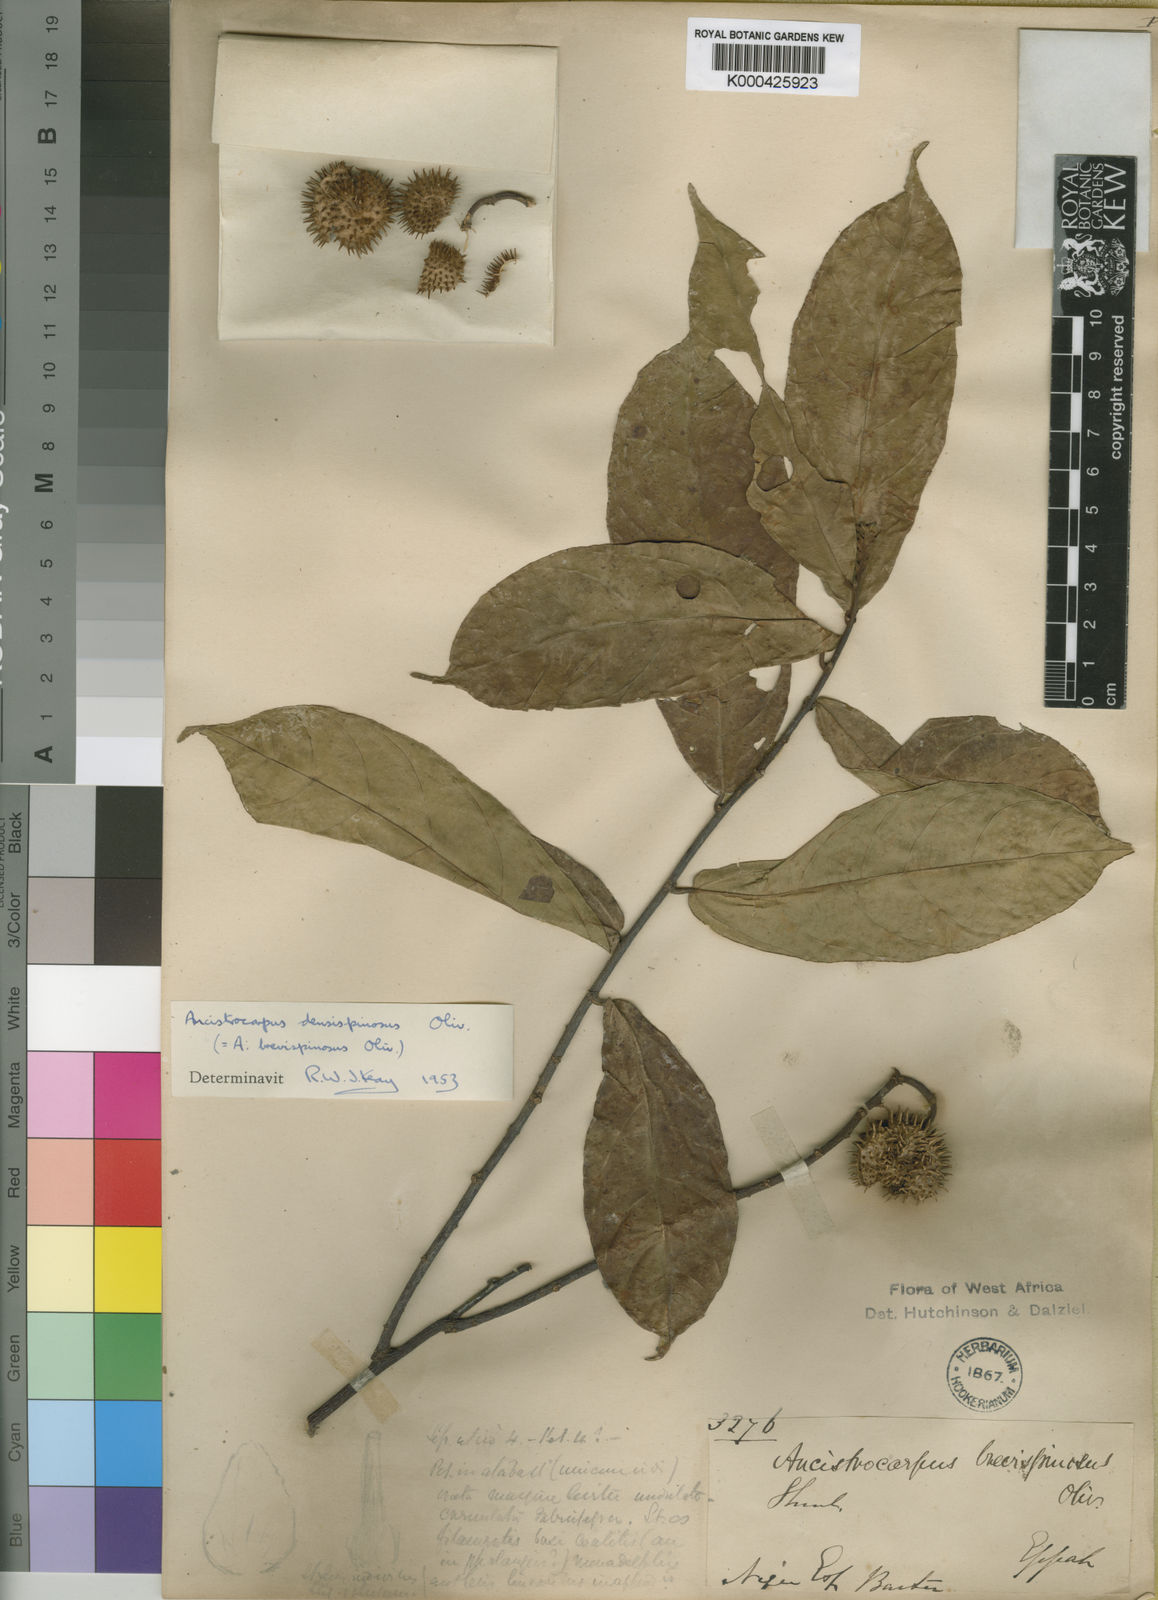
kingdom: Plantae
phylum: Tracheophyta
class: Magnoliopsida
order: Malvales
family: Malvaceae
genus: Ancistrocarpus
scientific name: Ancistrocarpus densispinosus
